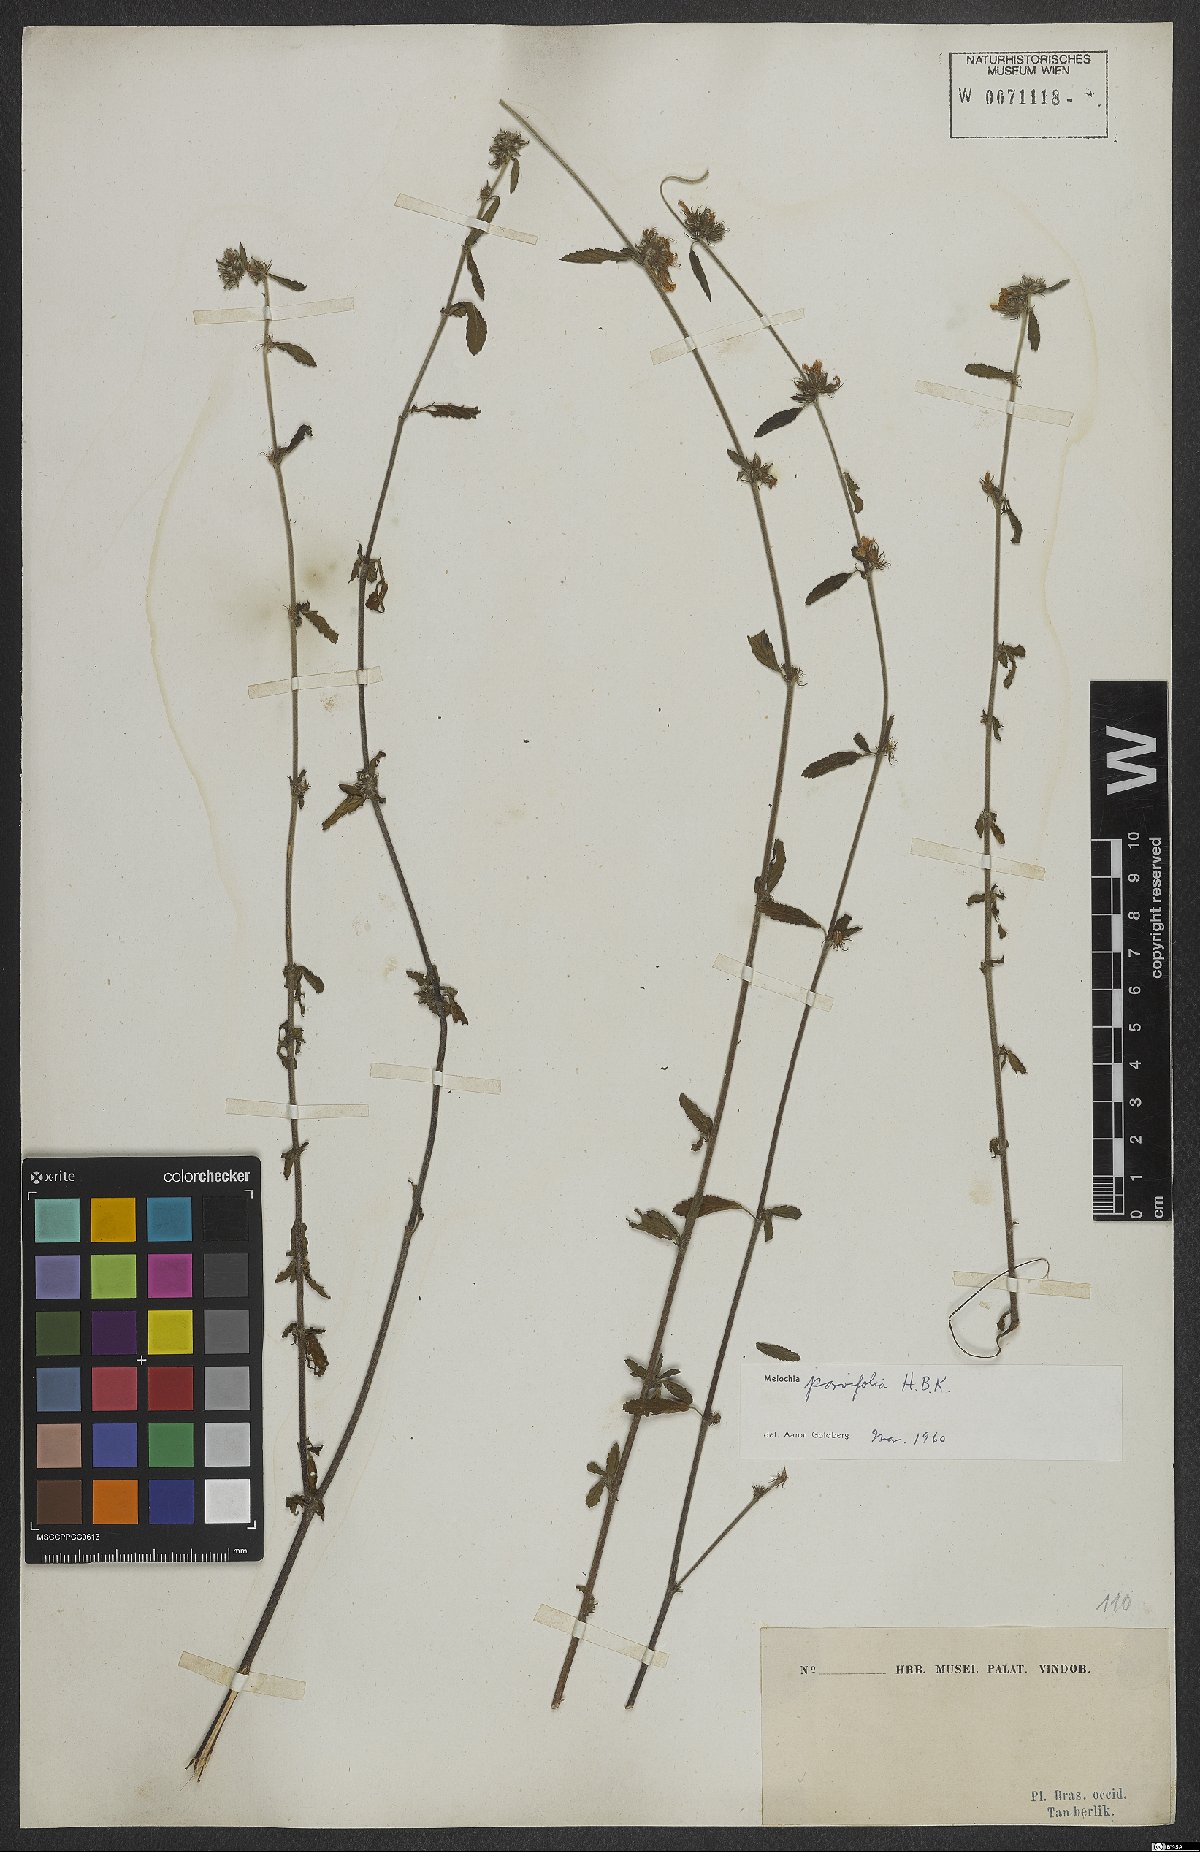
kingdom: Plantae
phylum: Tracheophyta
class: Magnoliopsida
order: Malvales
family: Malvaceae
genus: Melochia
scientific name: Melochia parvifolia
